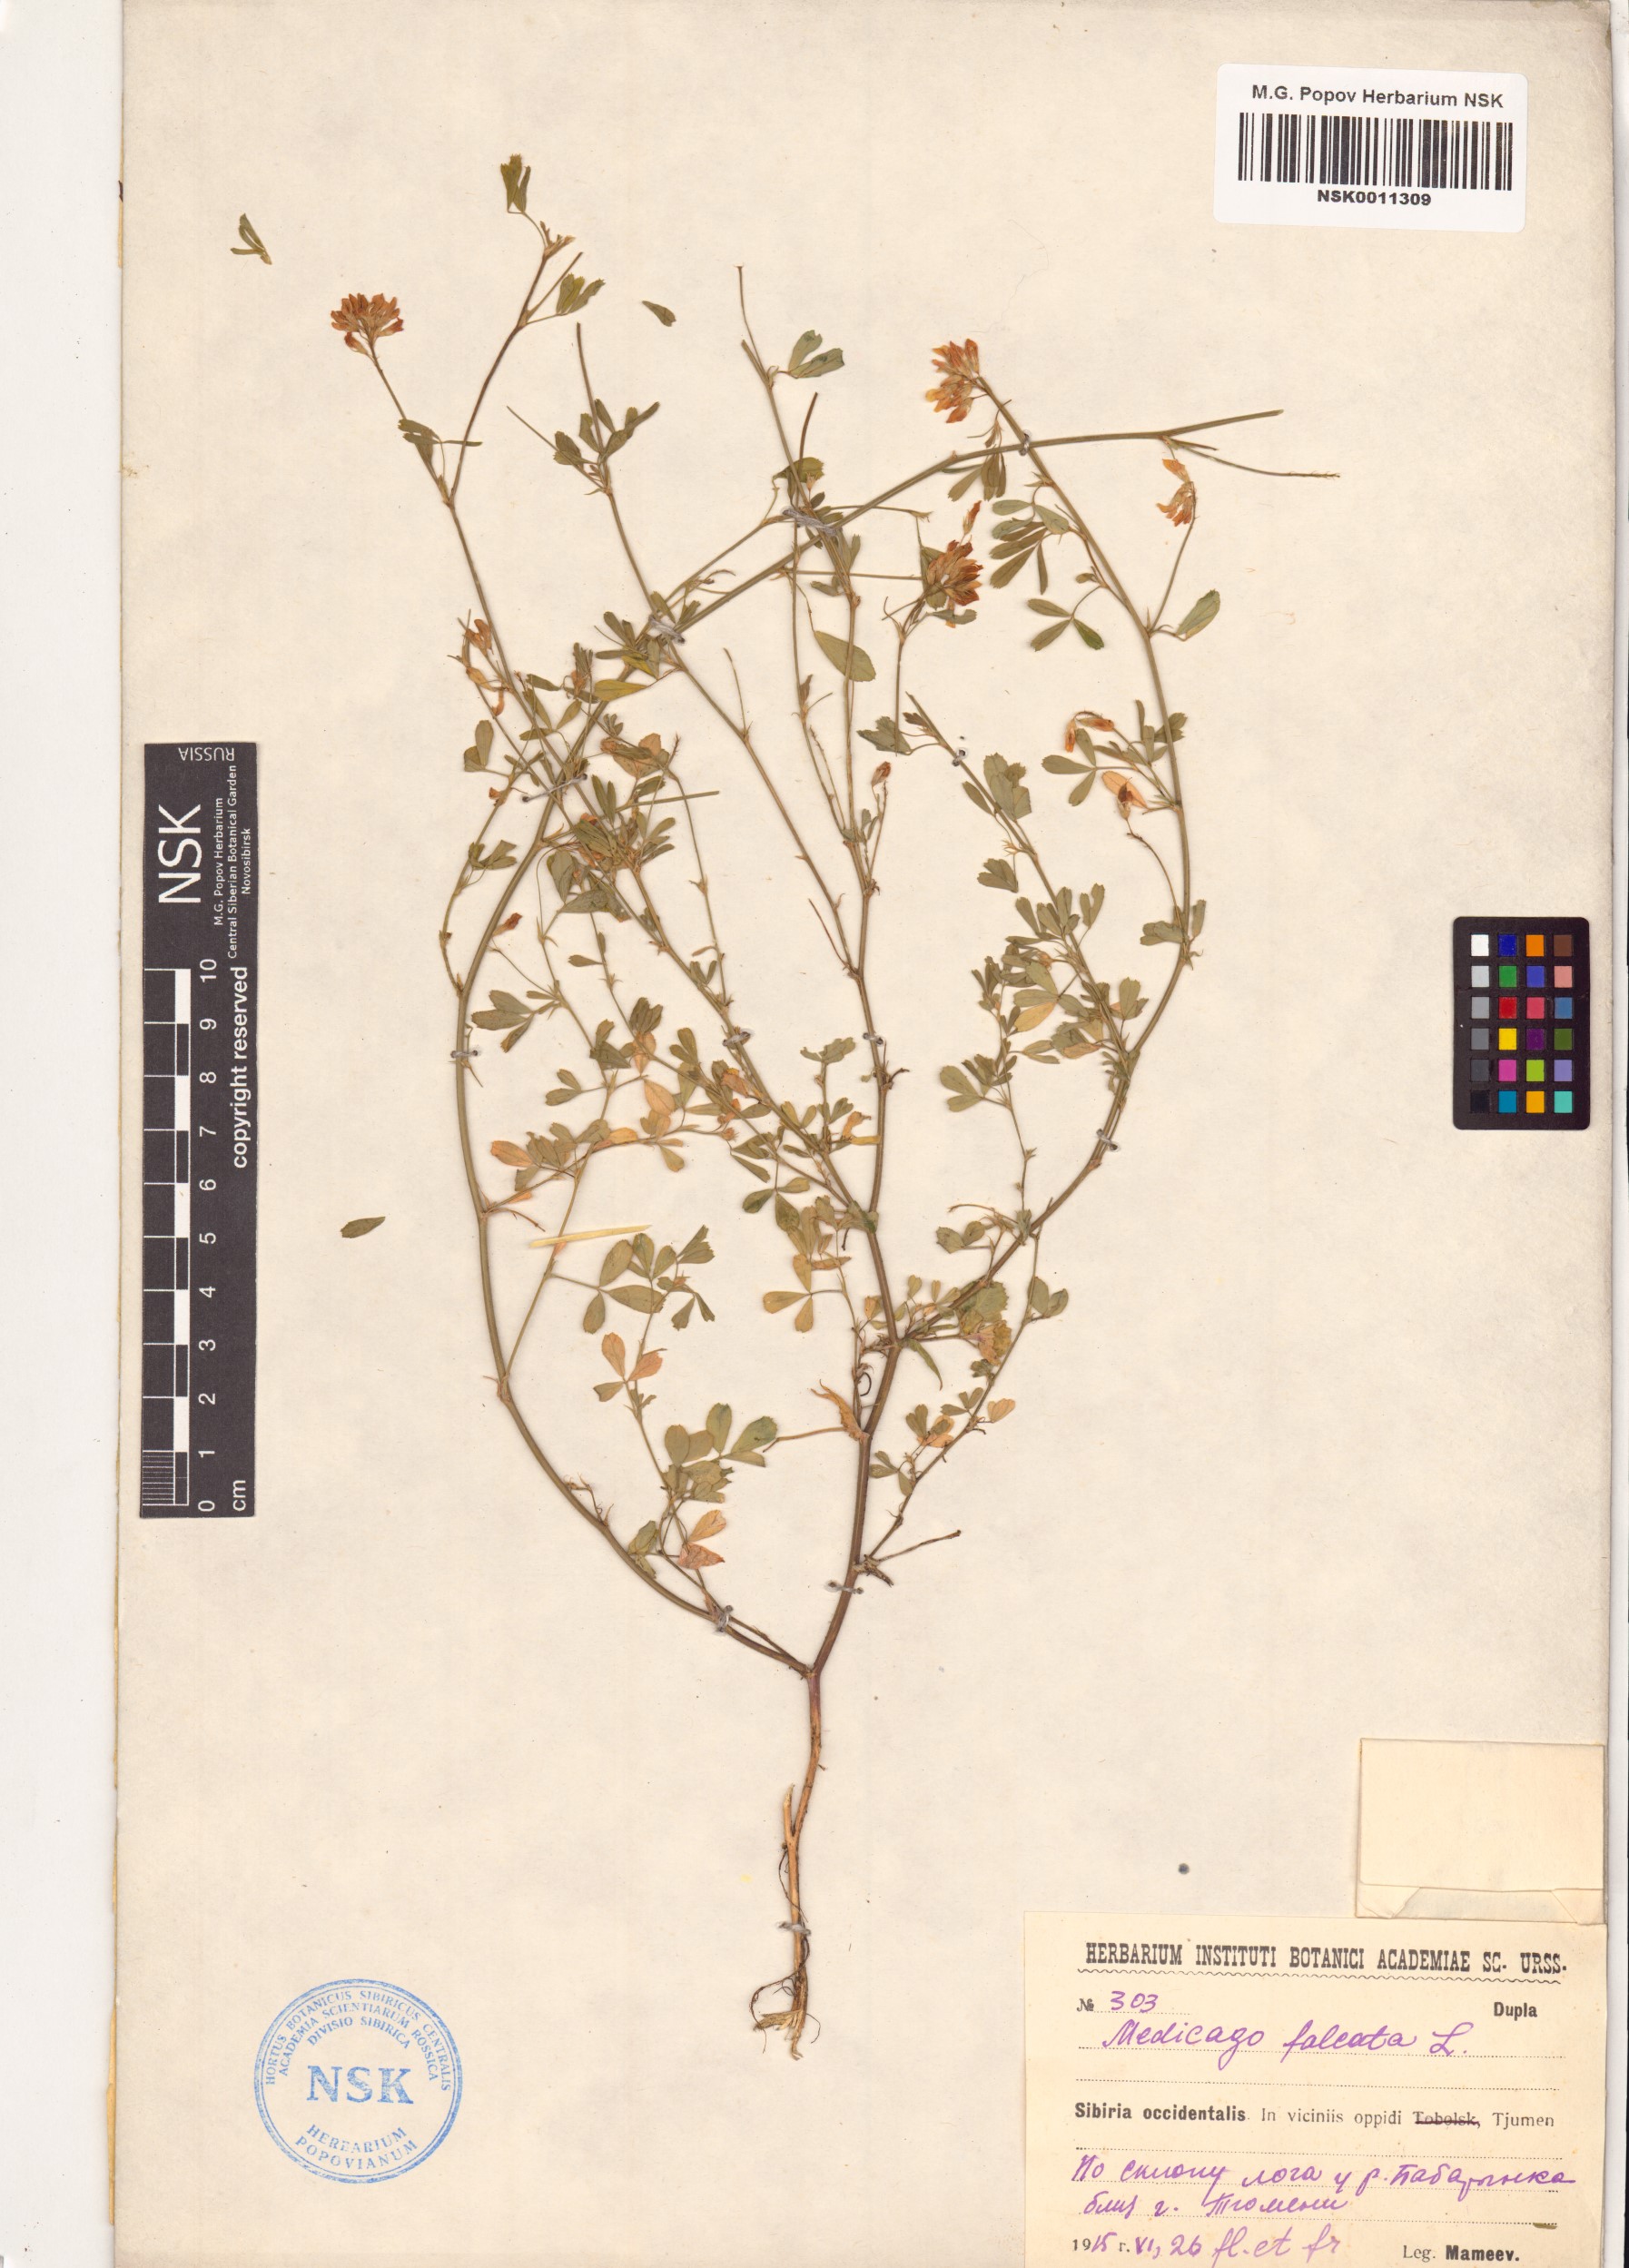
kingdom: Plantae
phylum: Tracheophyta
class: Magnoliopsida
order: Fabales
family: Fabaceae
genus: Medicago
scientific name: Medicago falcata
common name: Sickle medick
